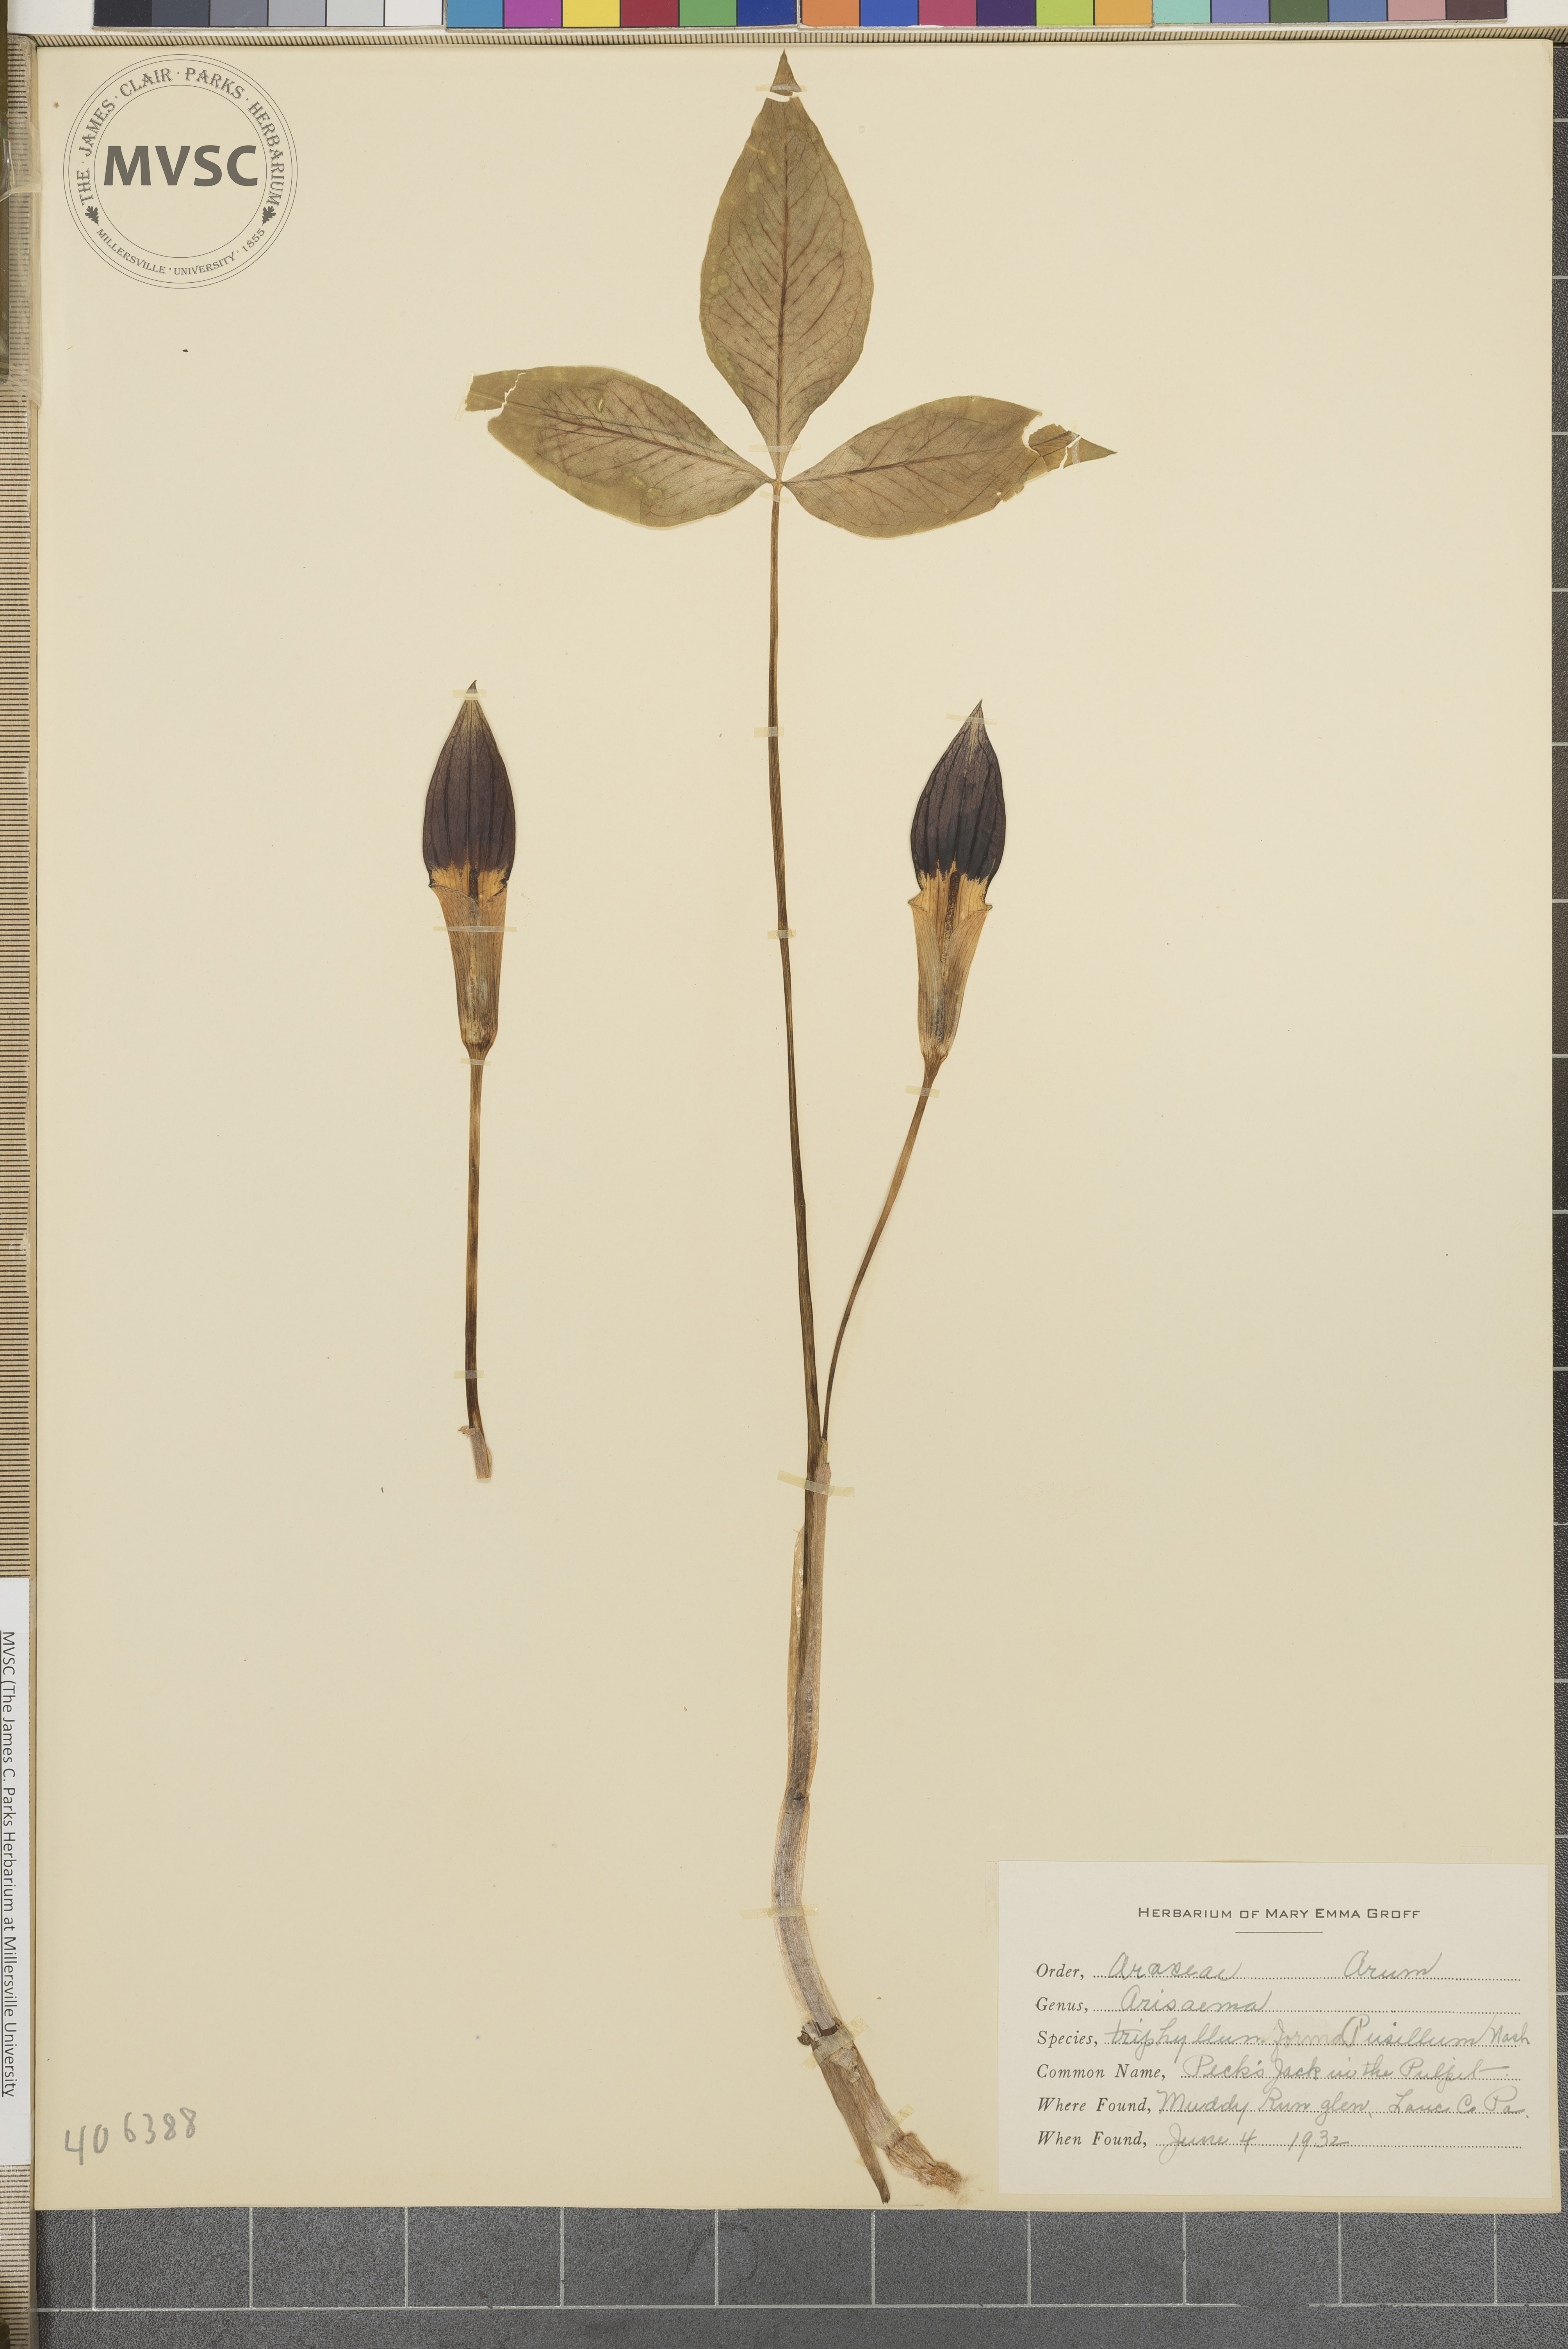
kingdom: Plantae
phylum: Tracheophyta
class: Liliopsida
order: Alismatales
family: Araceae
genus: Arisaema
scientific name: Arisaema triphyllum
